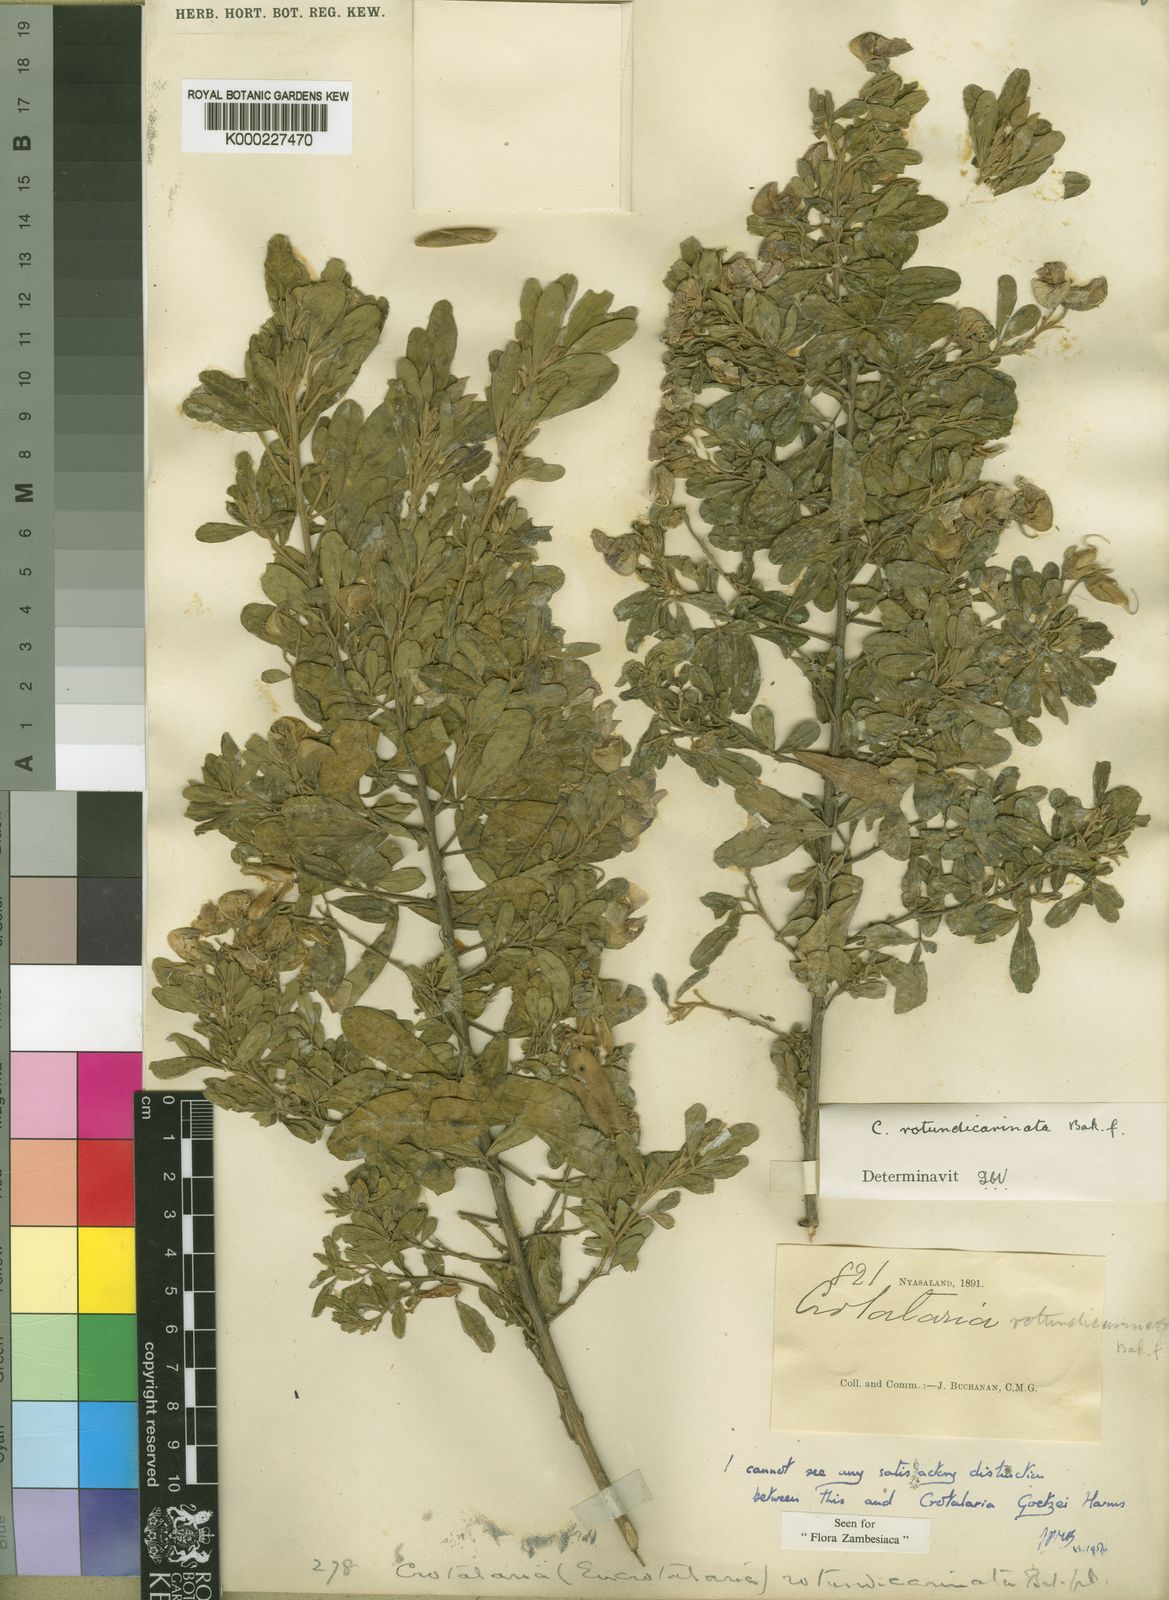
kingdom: Plantae
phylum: Tracheophyta
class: Magnoliopsida
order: Fabales
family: Fabaceae
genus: Crotalaria
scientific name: Crotalaria goetzei
